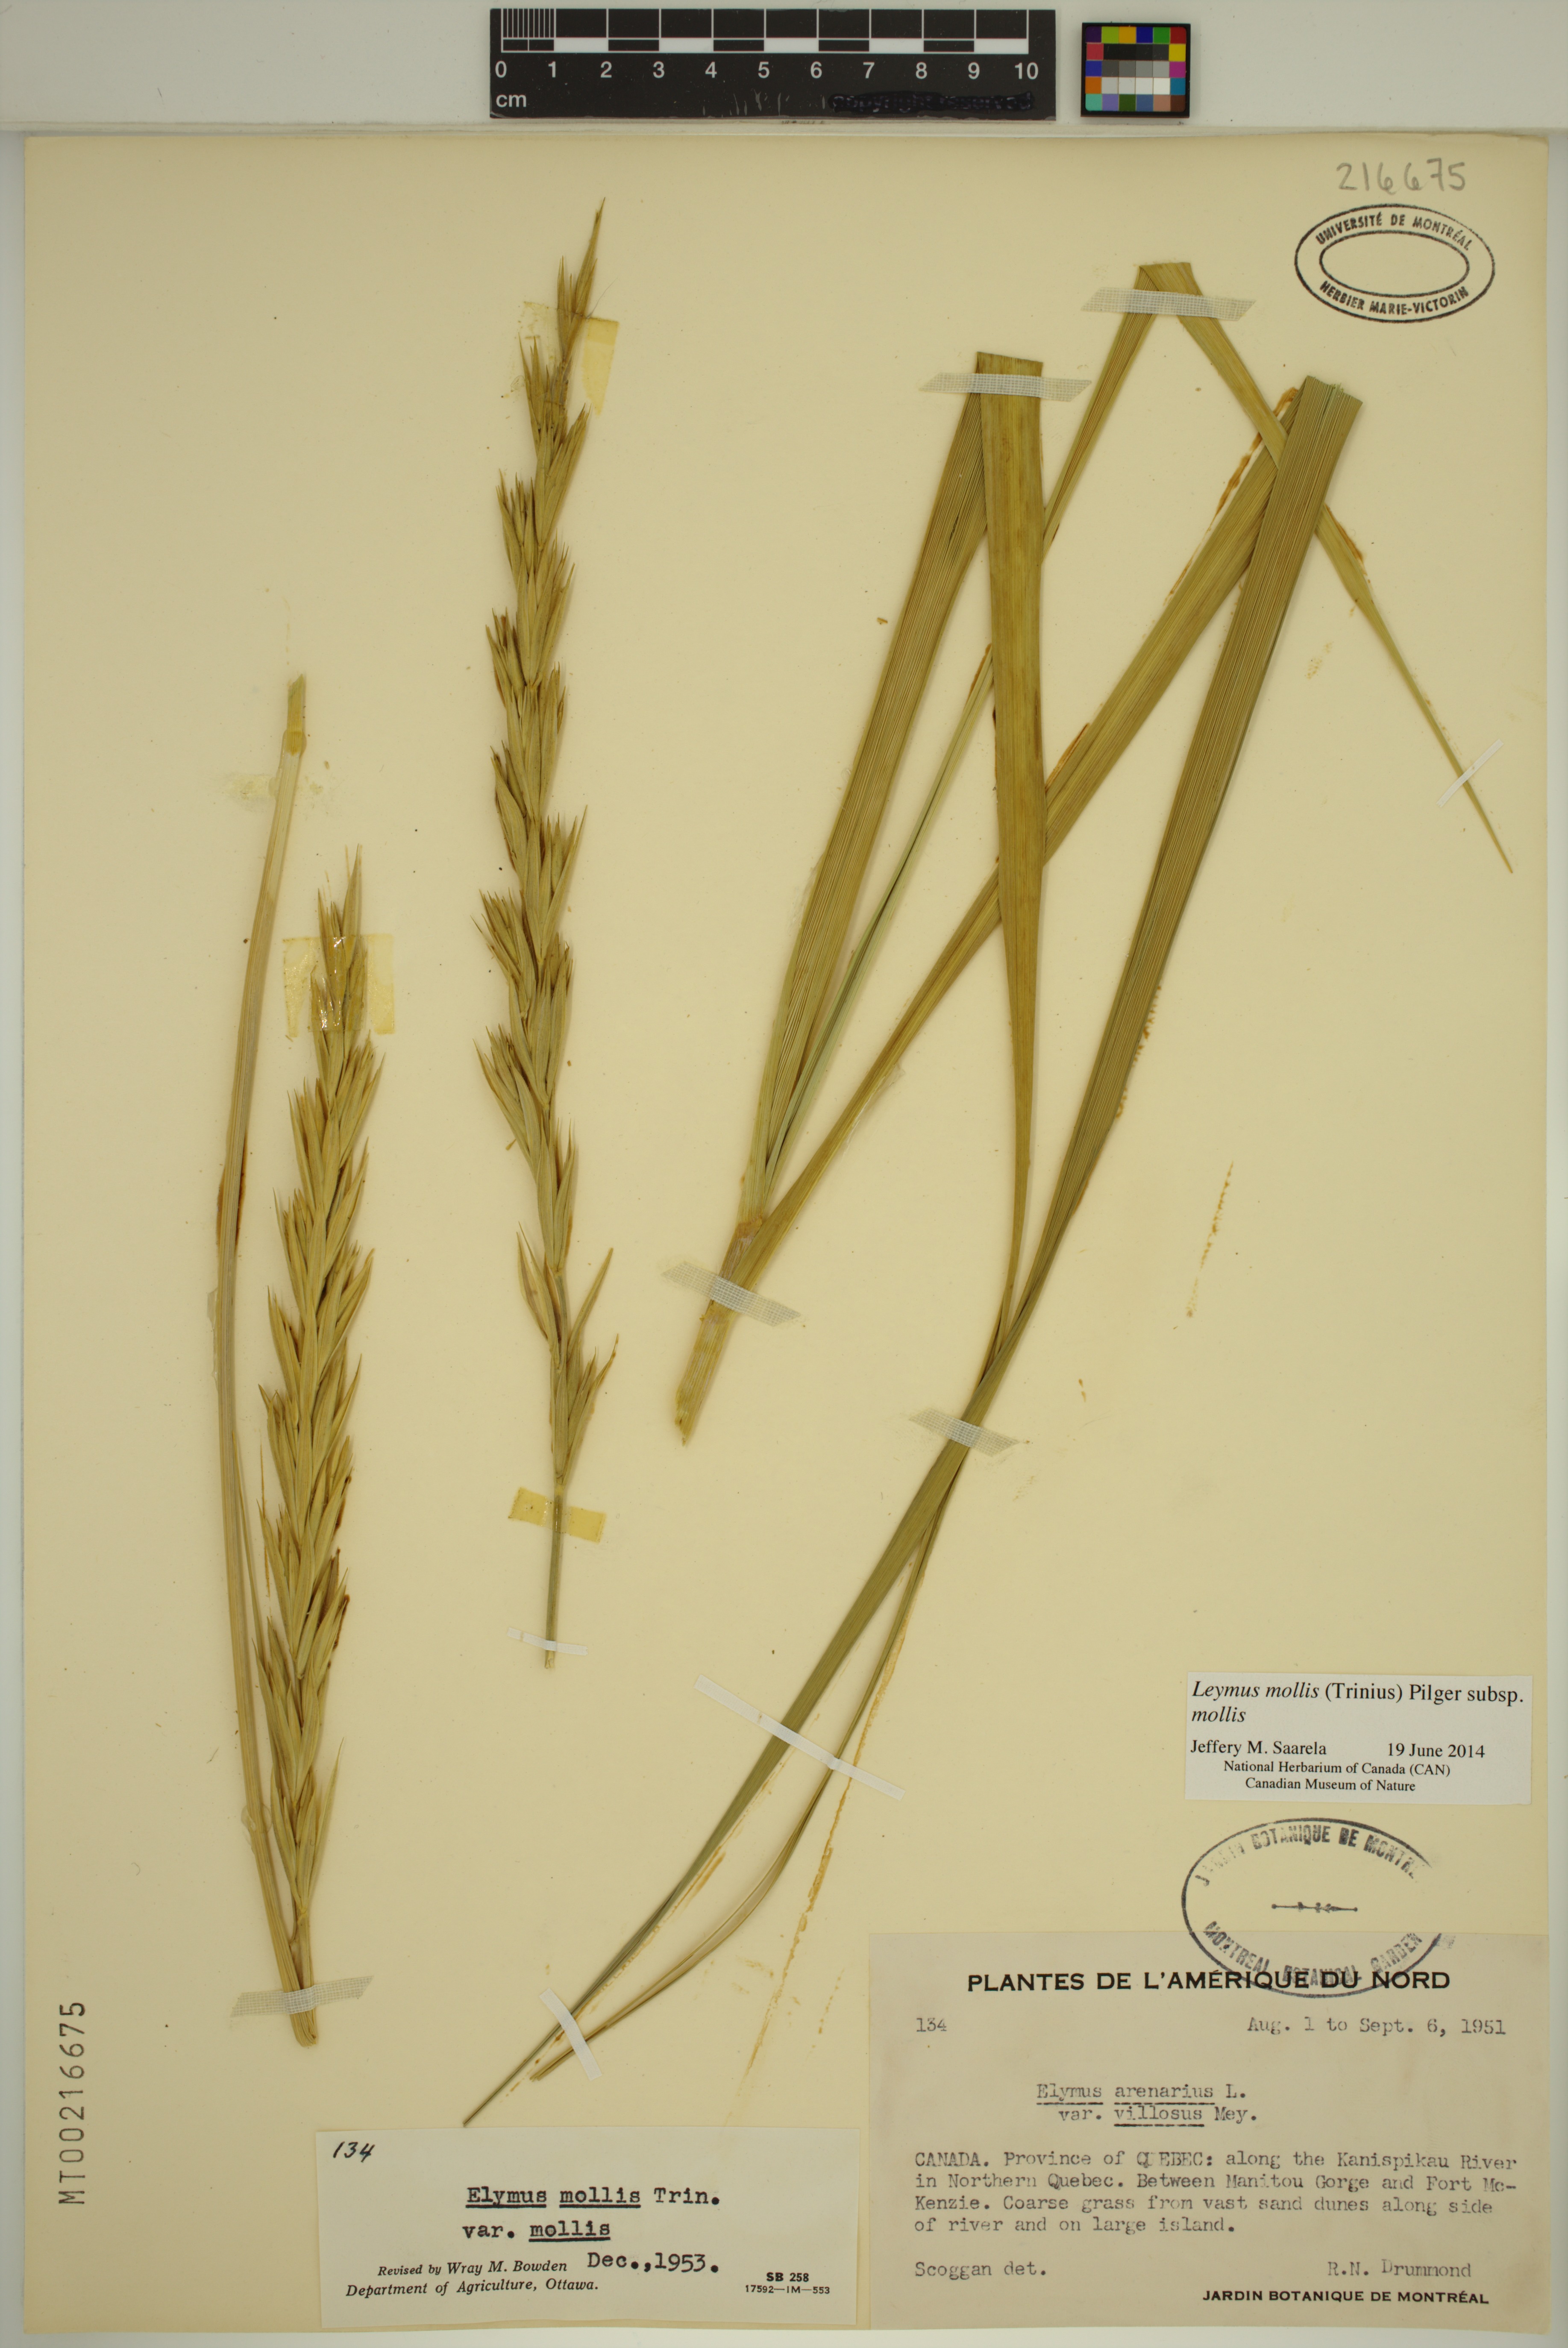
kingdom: Plantae
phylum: Tracheophyta
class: Liliopsida
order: Poales
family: Poaceae
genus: Leymus
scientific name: Leymus mollis
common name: American dune grass
